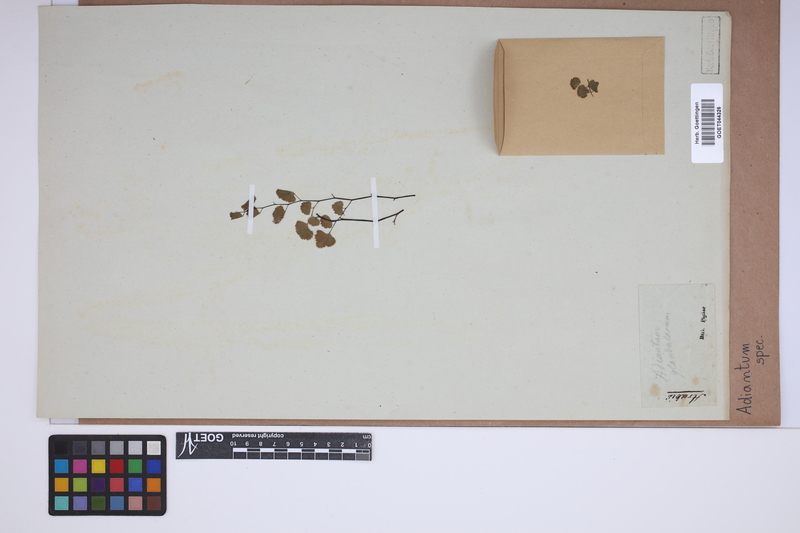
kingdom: Plantae
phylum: Tracheophyta
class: Polypodiopsida
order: Polypodiales
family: Pteridaceae
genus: Adiantum
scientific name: Adiantum
